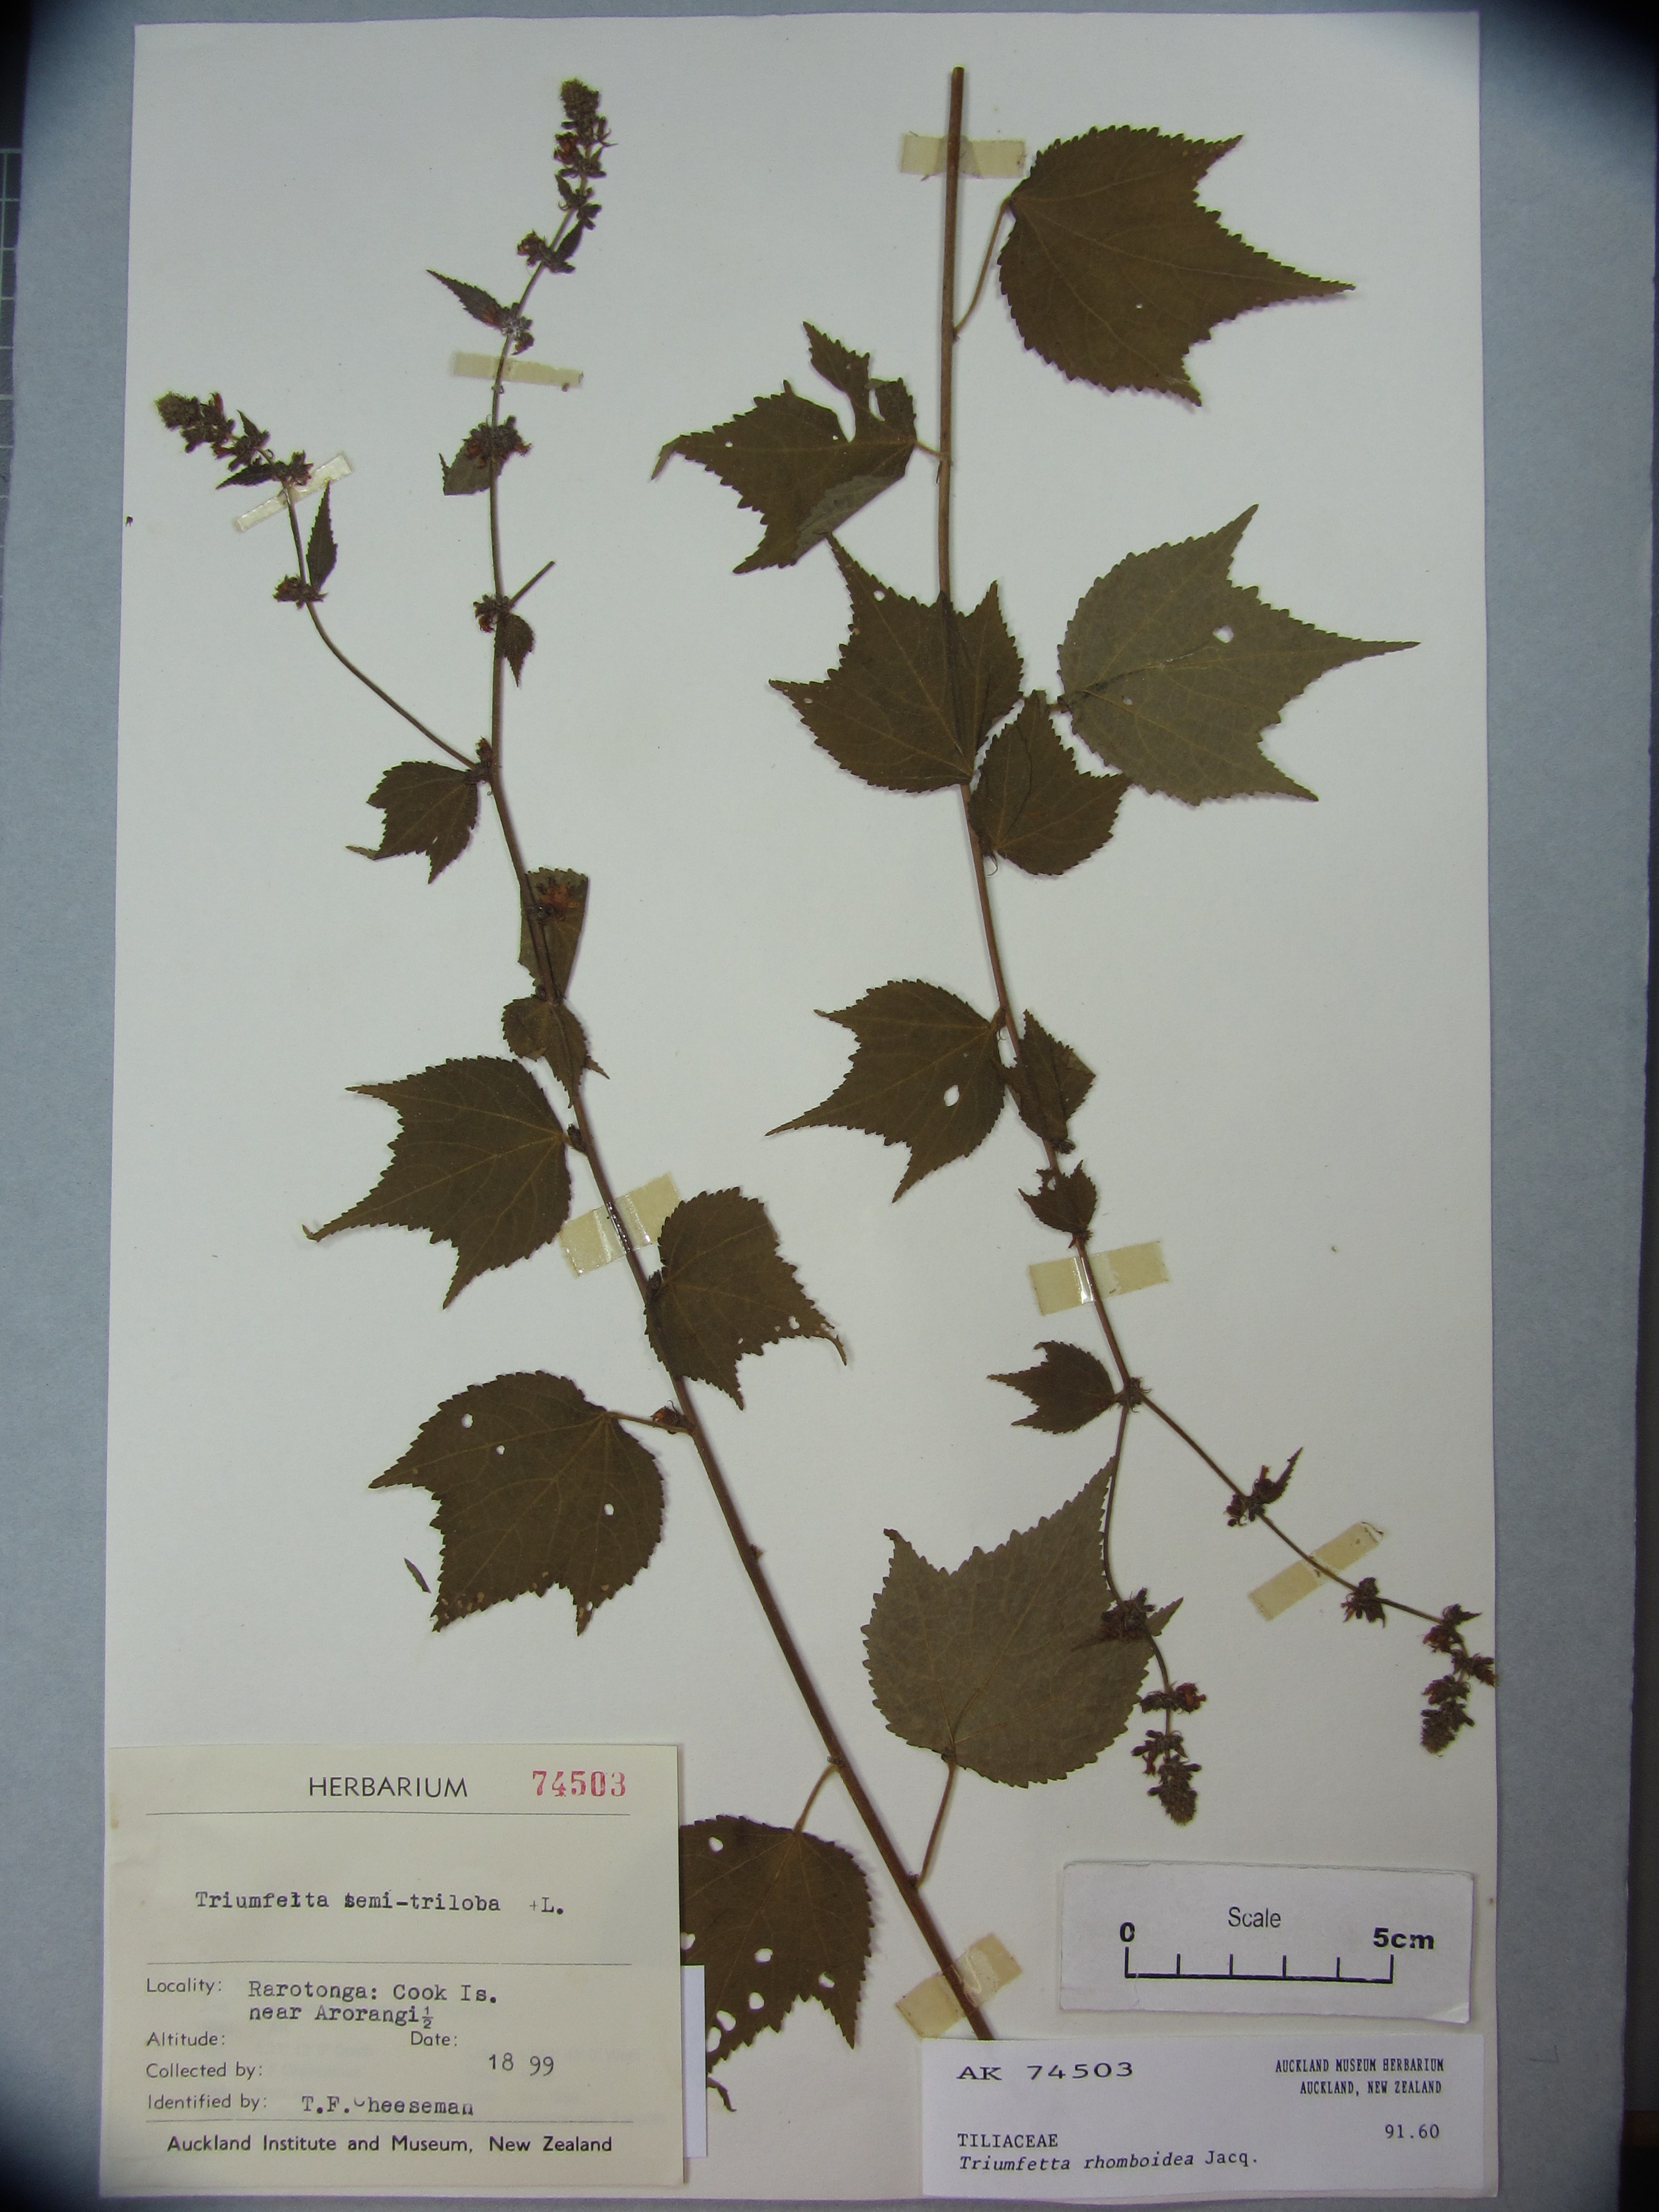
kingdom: Plantae
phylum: Tracheophyta
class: Magnoliopsida
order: Malvales
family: Malvaceae
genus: Triumfetta
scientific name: Triumfetta rhomboidea
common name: Diamond burbark
